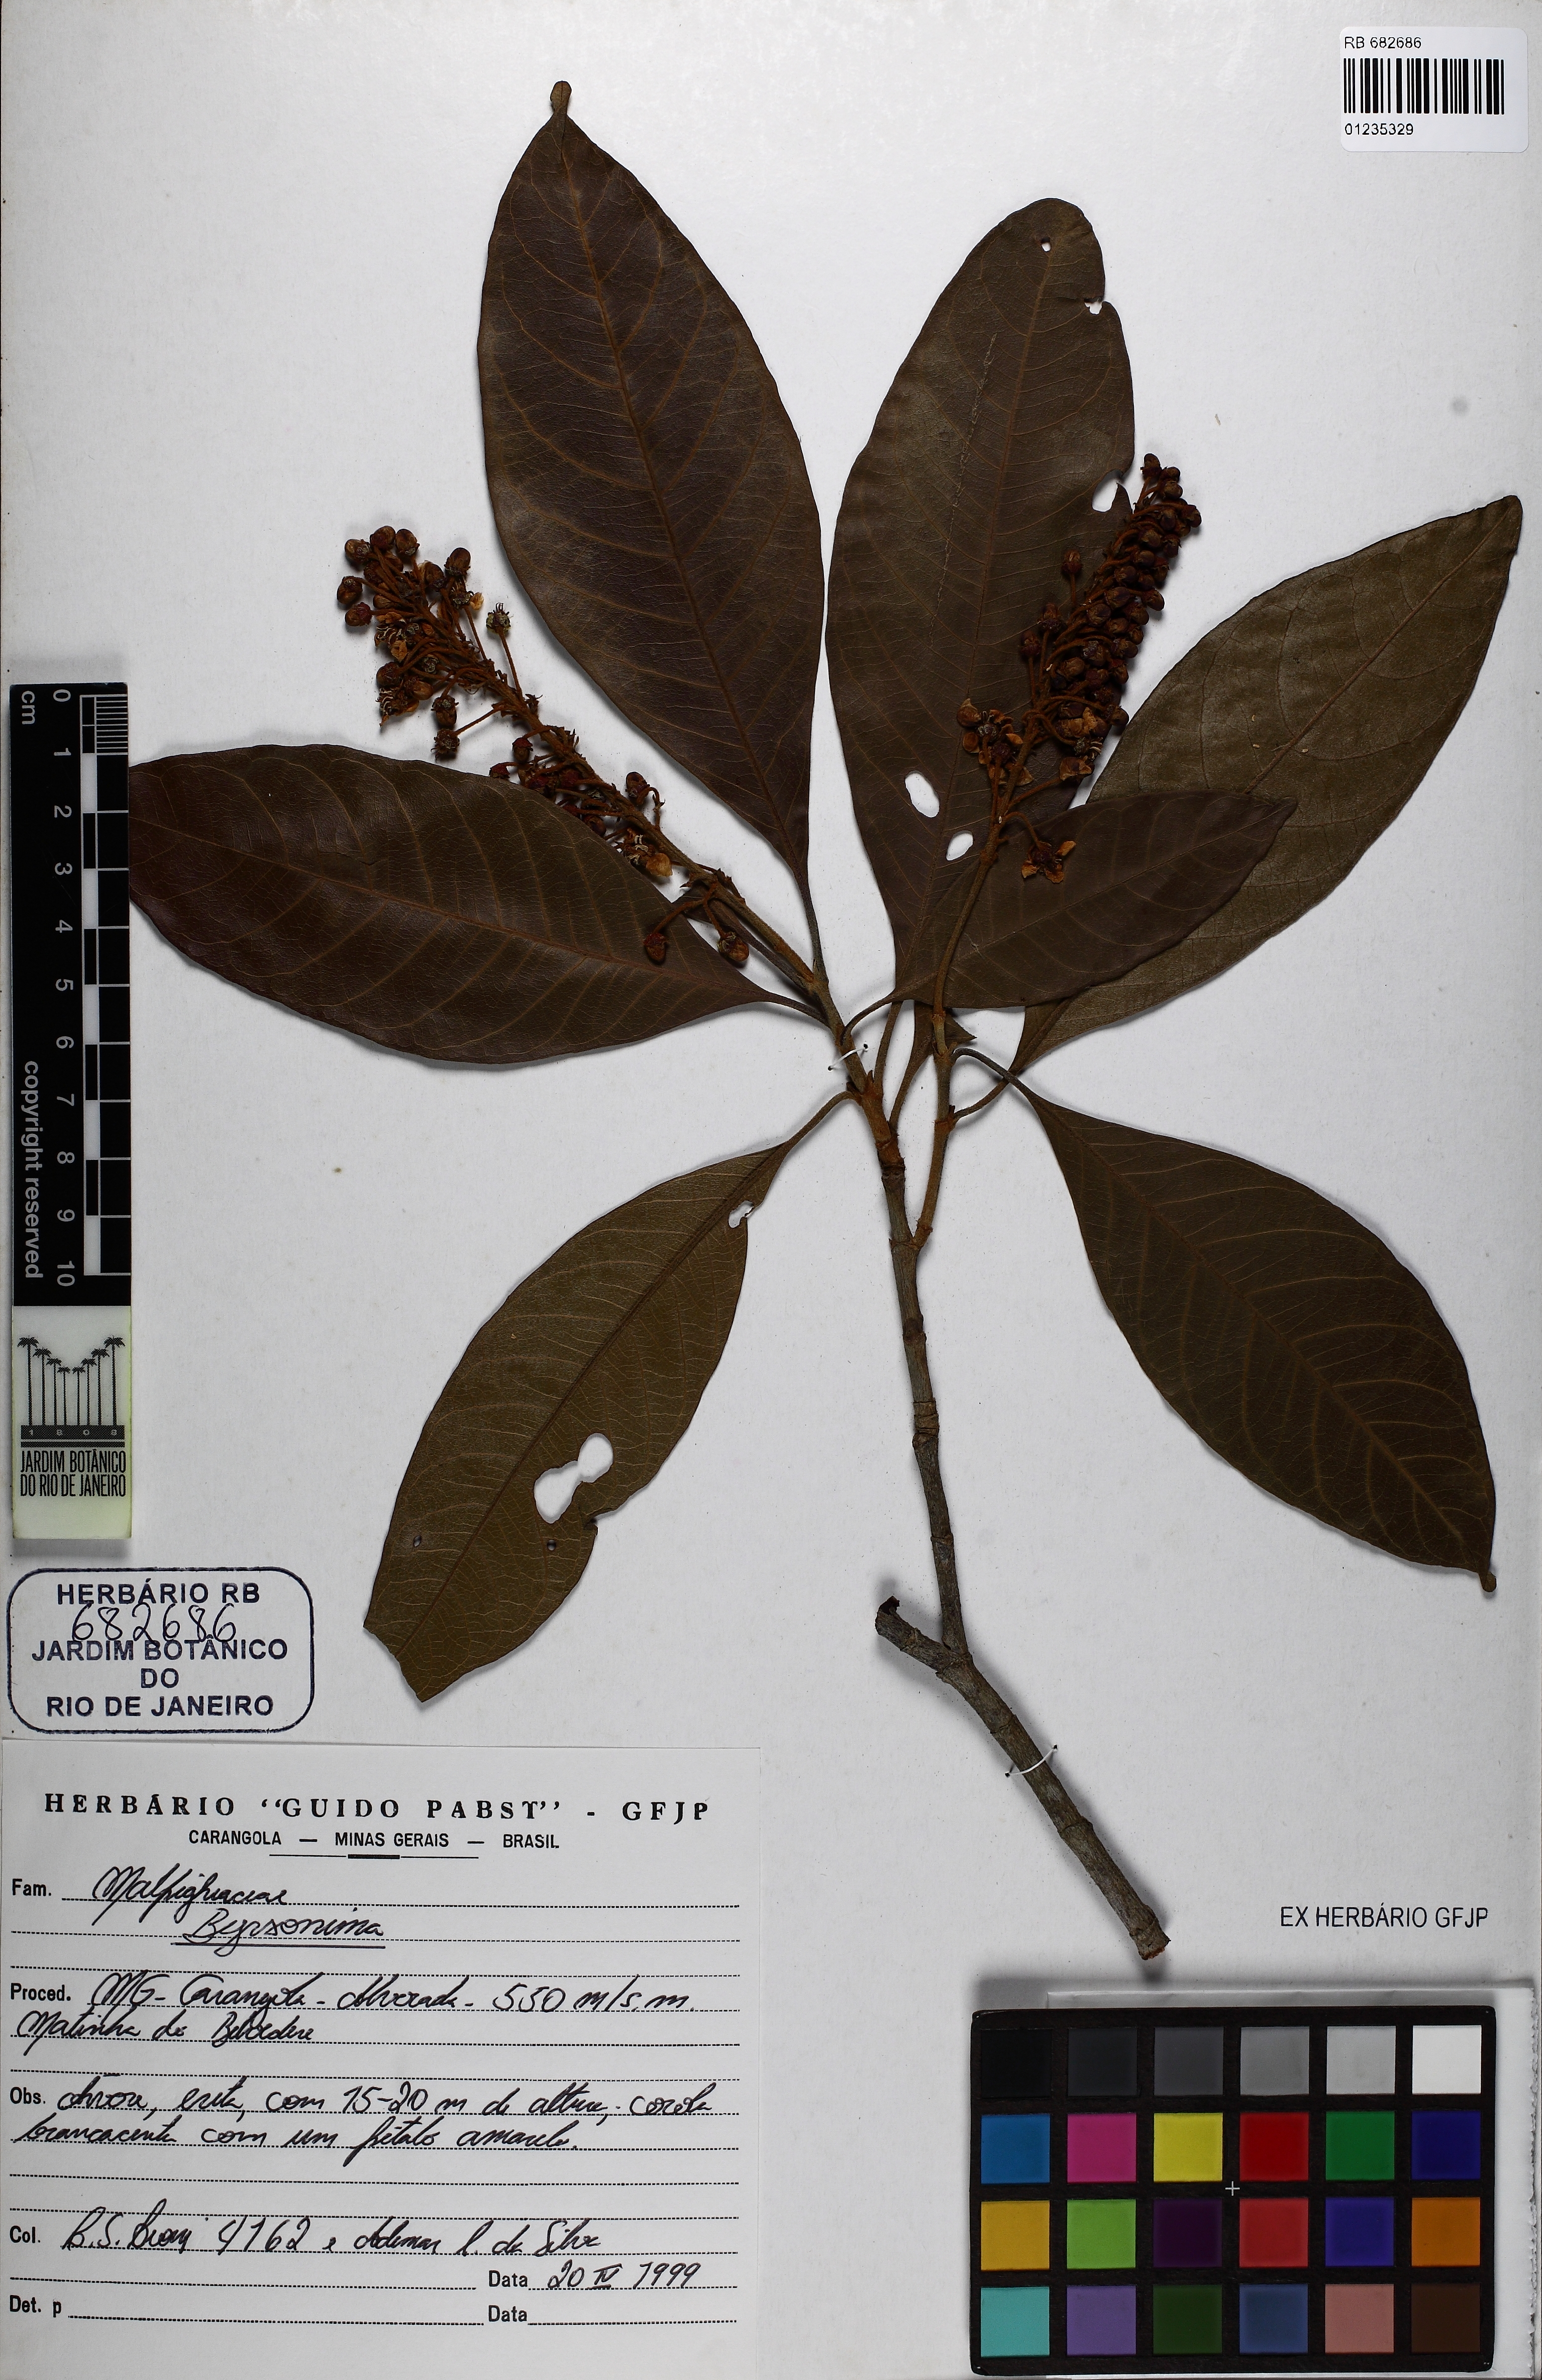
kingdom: Plantae
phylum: Tracheophyta
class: Magnoliopsida
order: Malpighiales
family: Malpighiaceae
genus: Byrsonima
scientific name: Byrsonima
